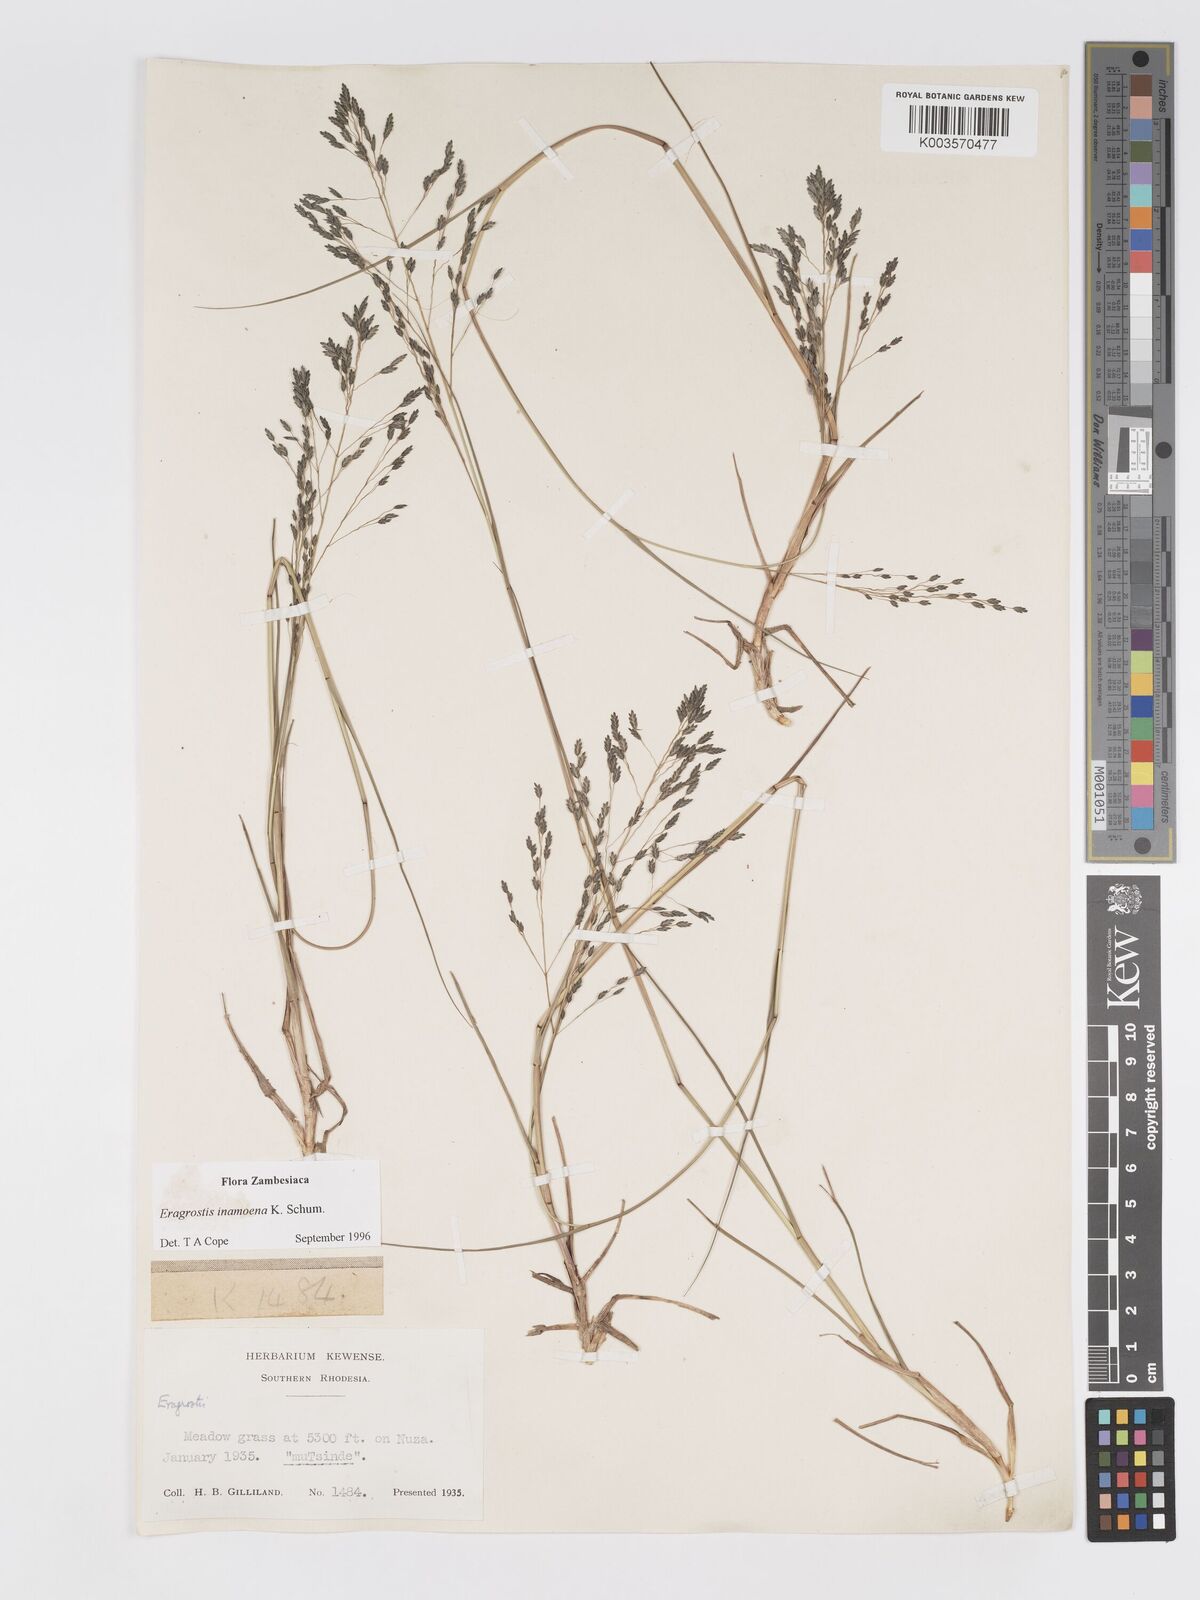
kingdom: Plantae
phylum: Tracheophyta
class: Liliopsida
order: Poales
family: Poaceae
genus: Eragrostis
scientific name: Eragrostis inamoena
